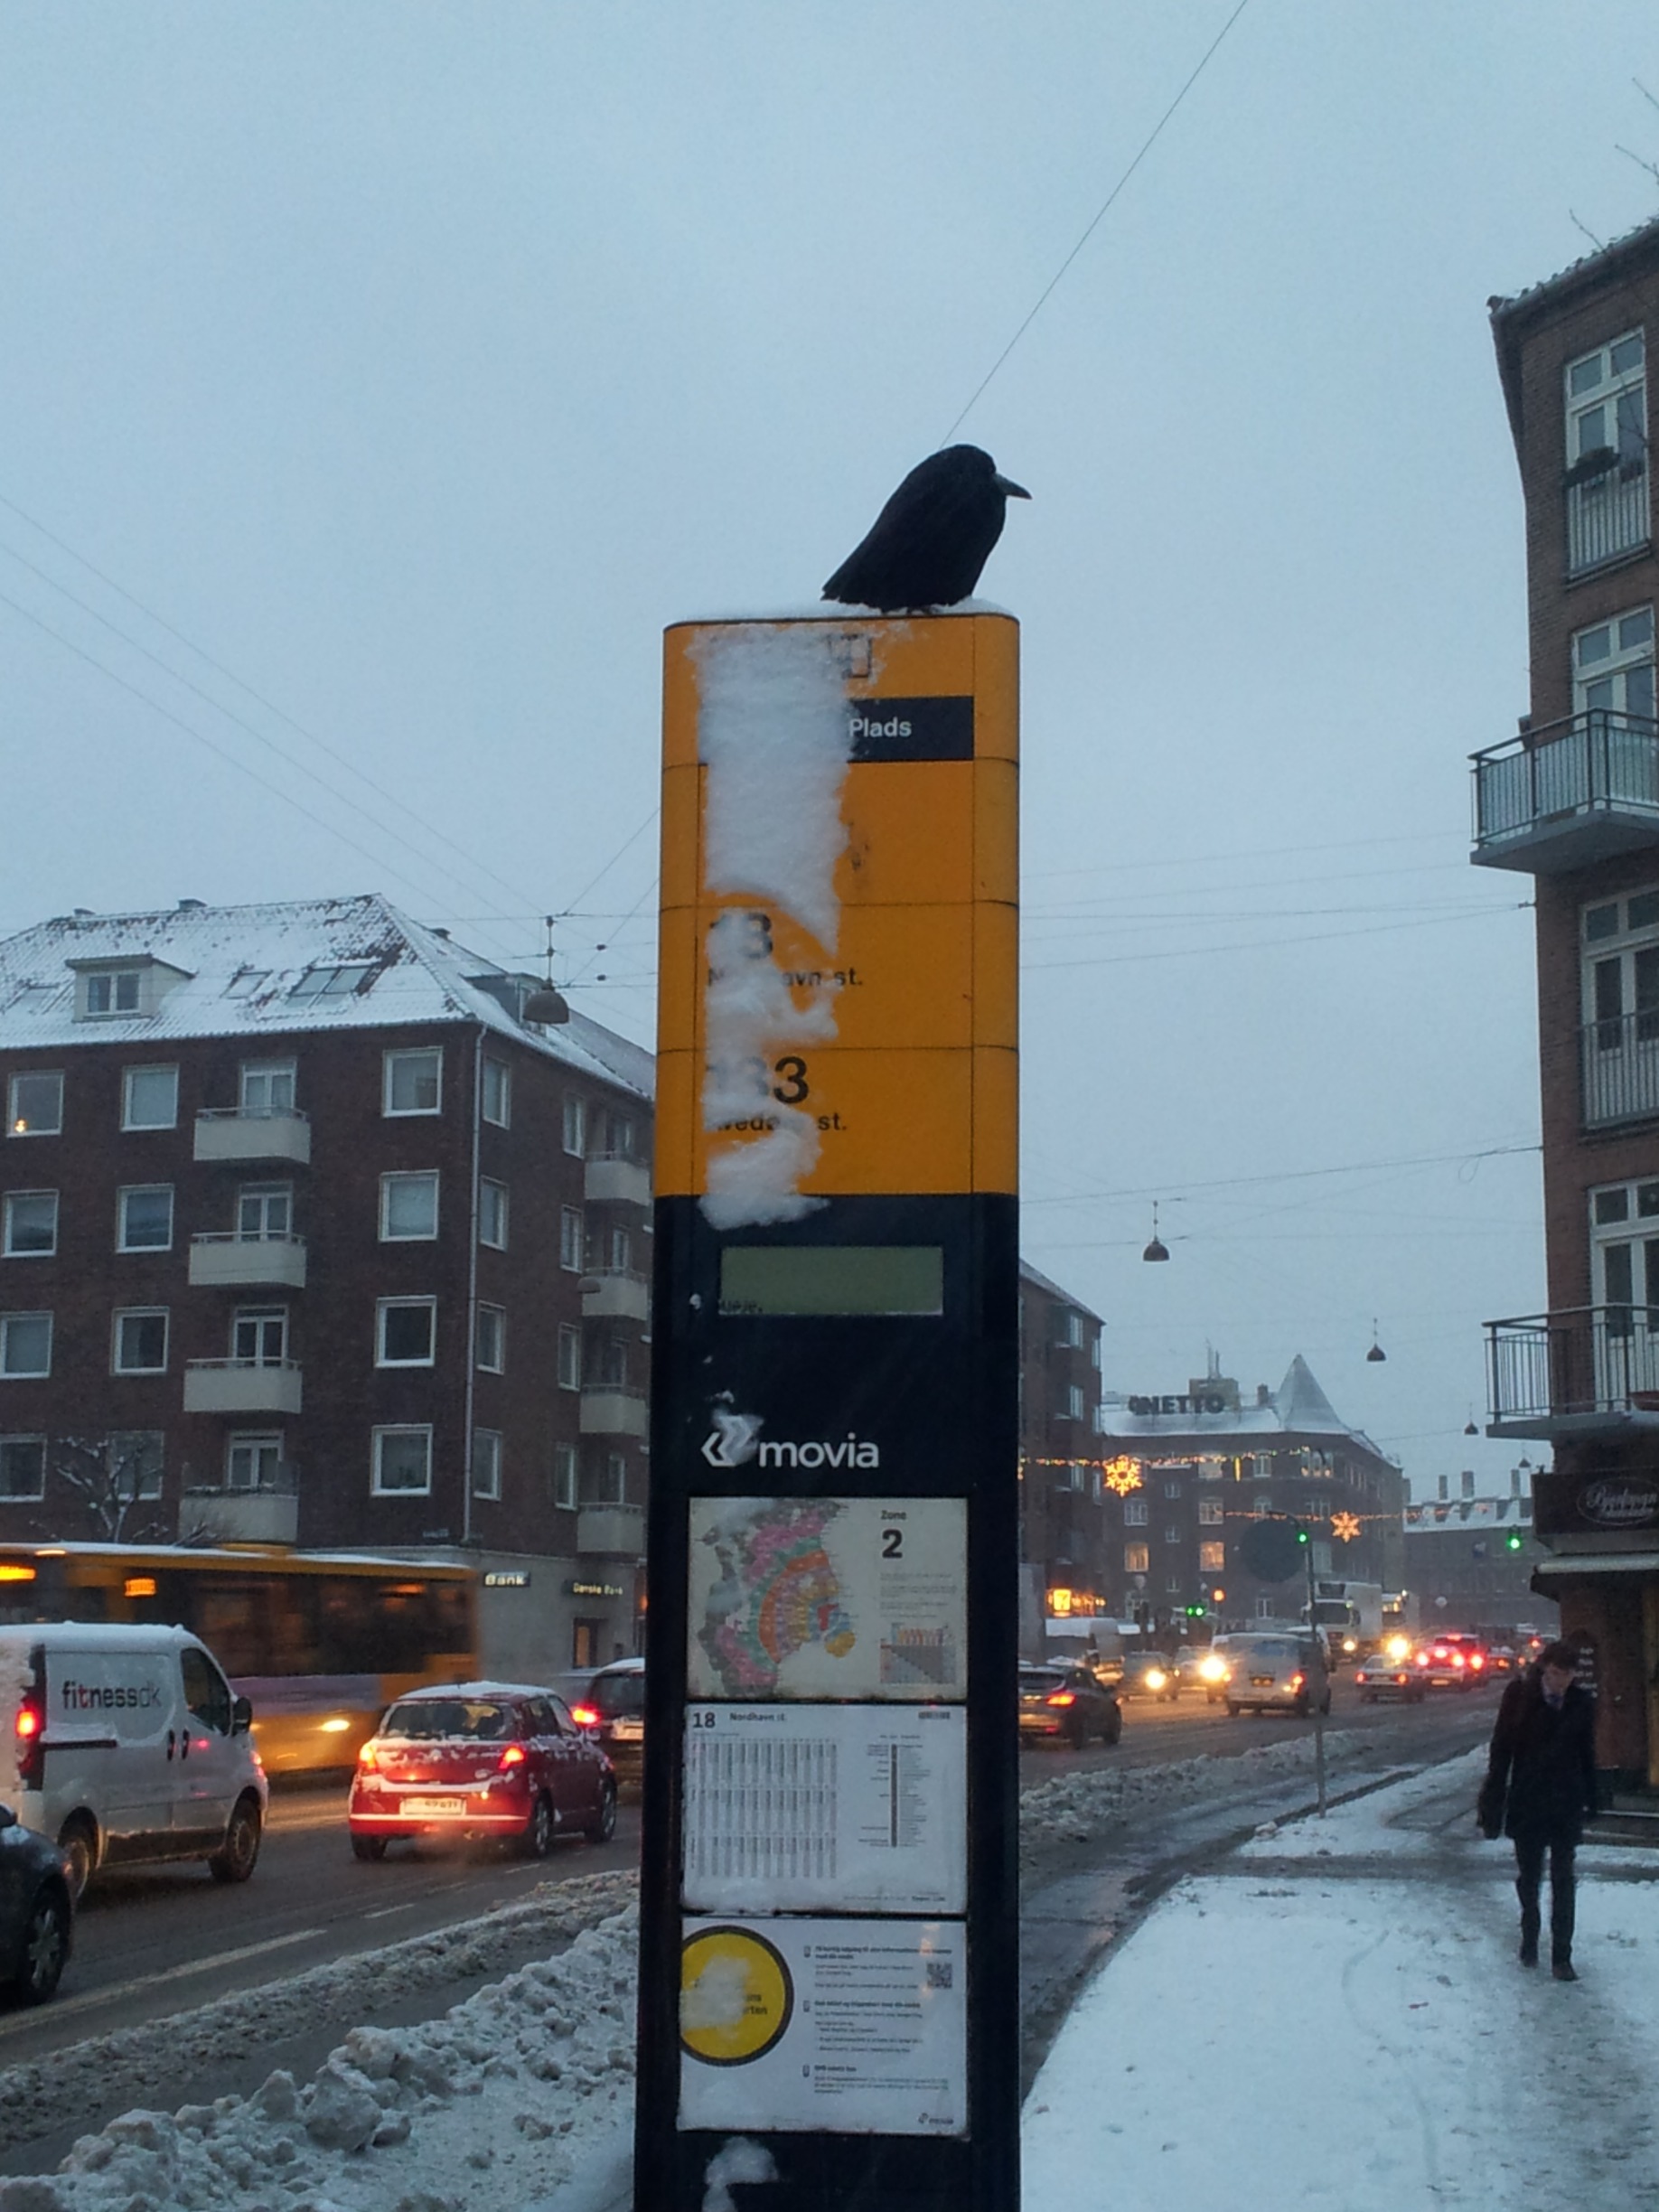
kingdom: Animalia
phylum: Chordata
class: Aves
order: Passeriformes
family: Corvidae
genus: Corvus
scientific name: Corvus frugilegus
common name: Råge
